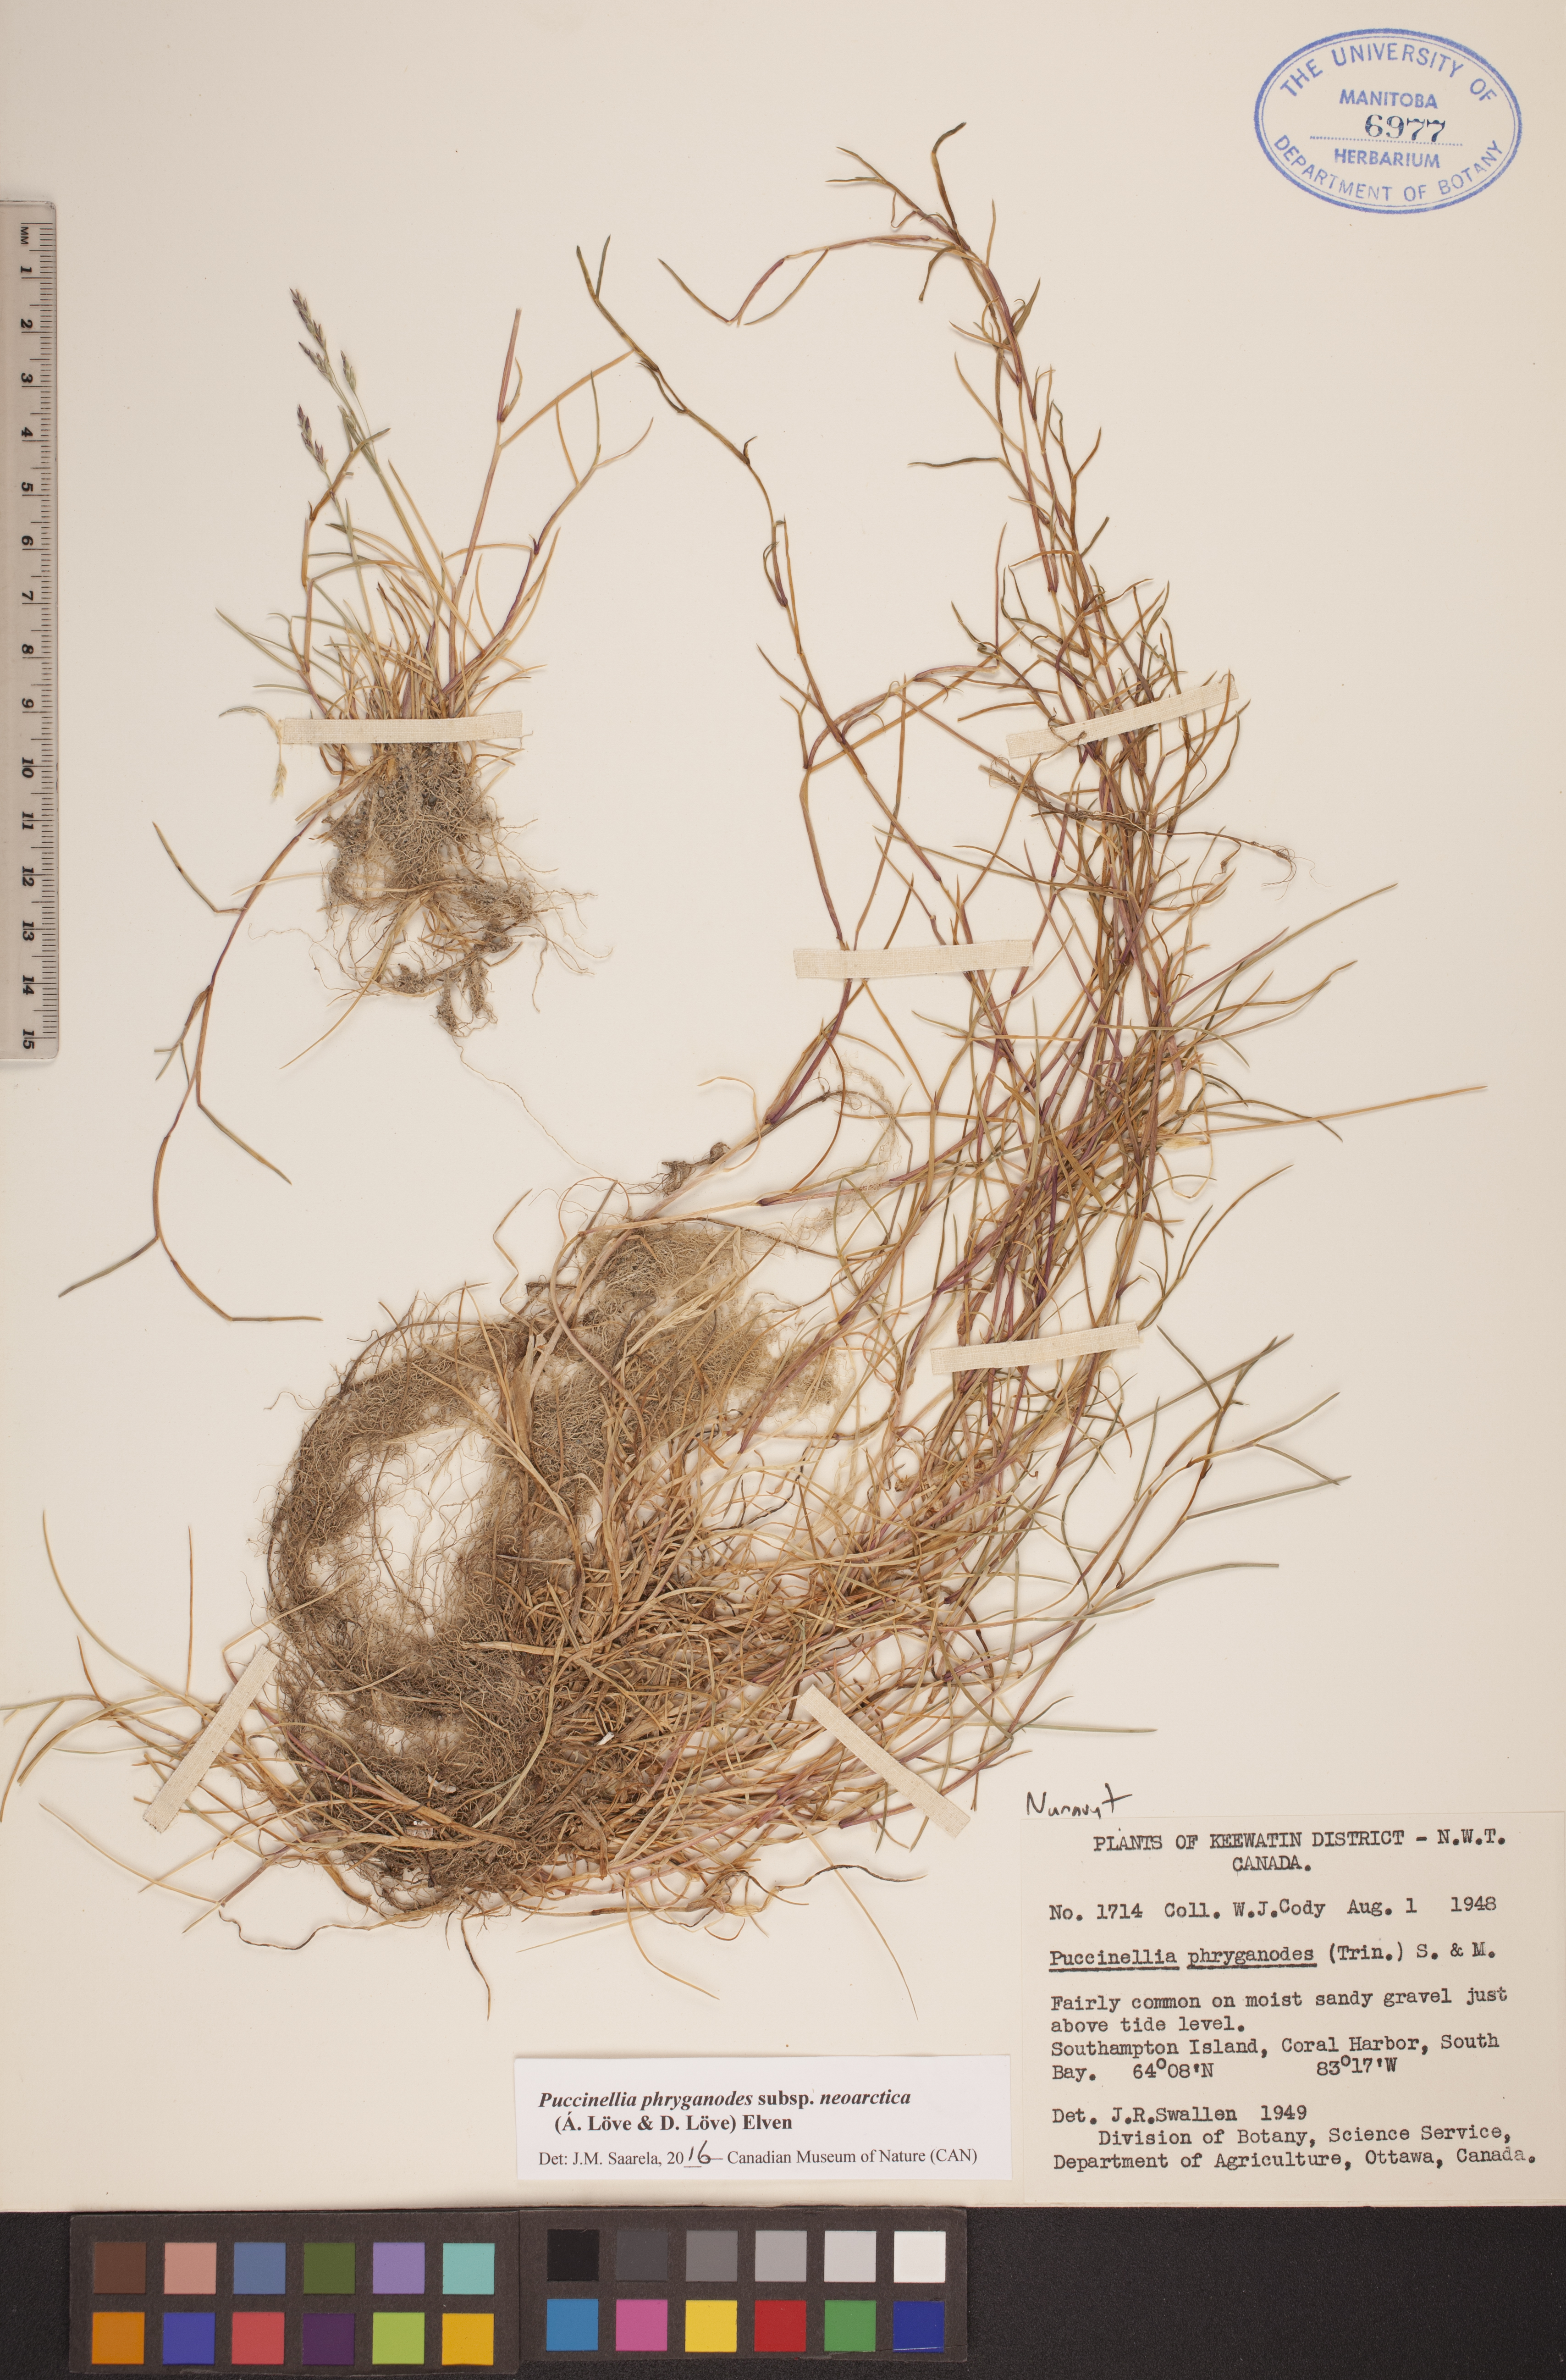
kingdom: Plantae
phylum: Tracheophyta
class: Liliopsida
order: Poales
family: Poaceae
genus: Puccinellia
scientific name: Puccinellia phryganodes
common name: Creeping alkaligrass
